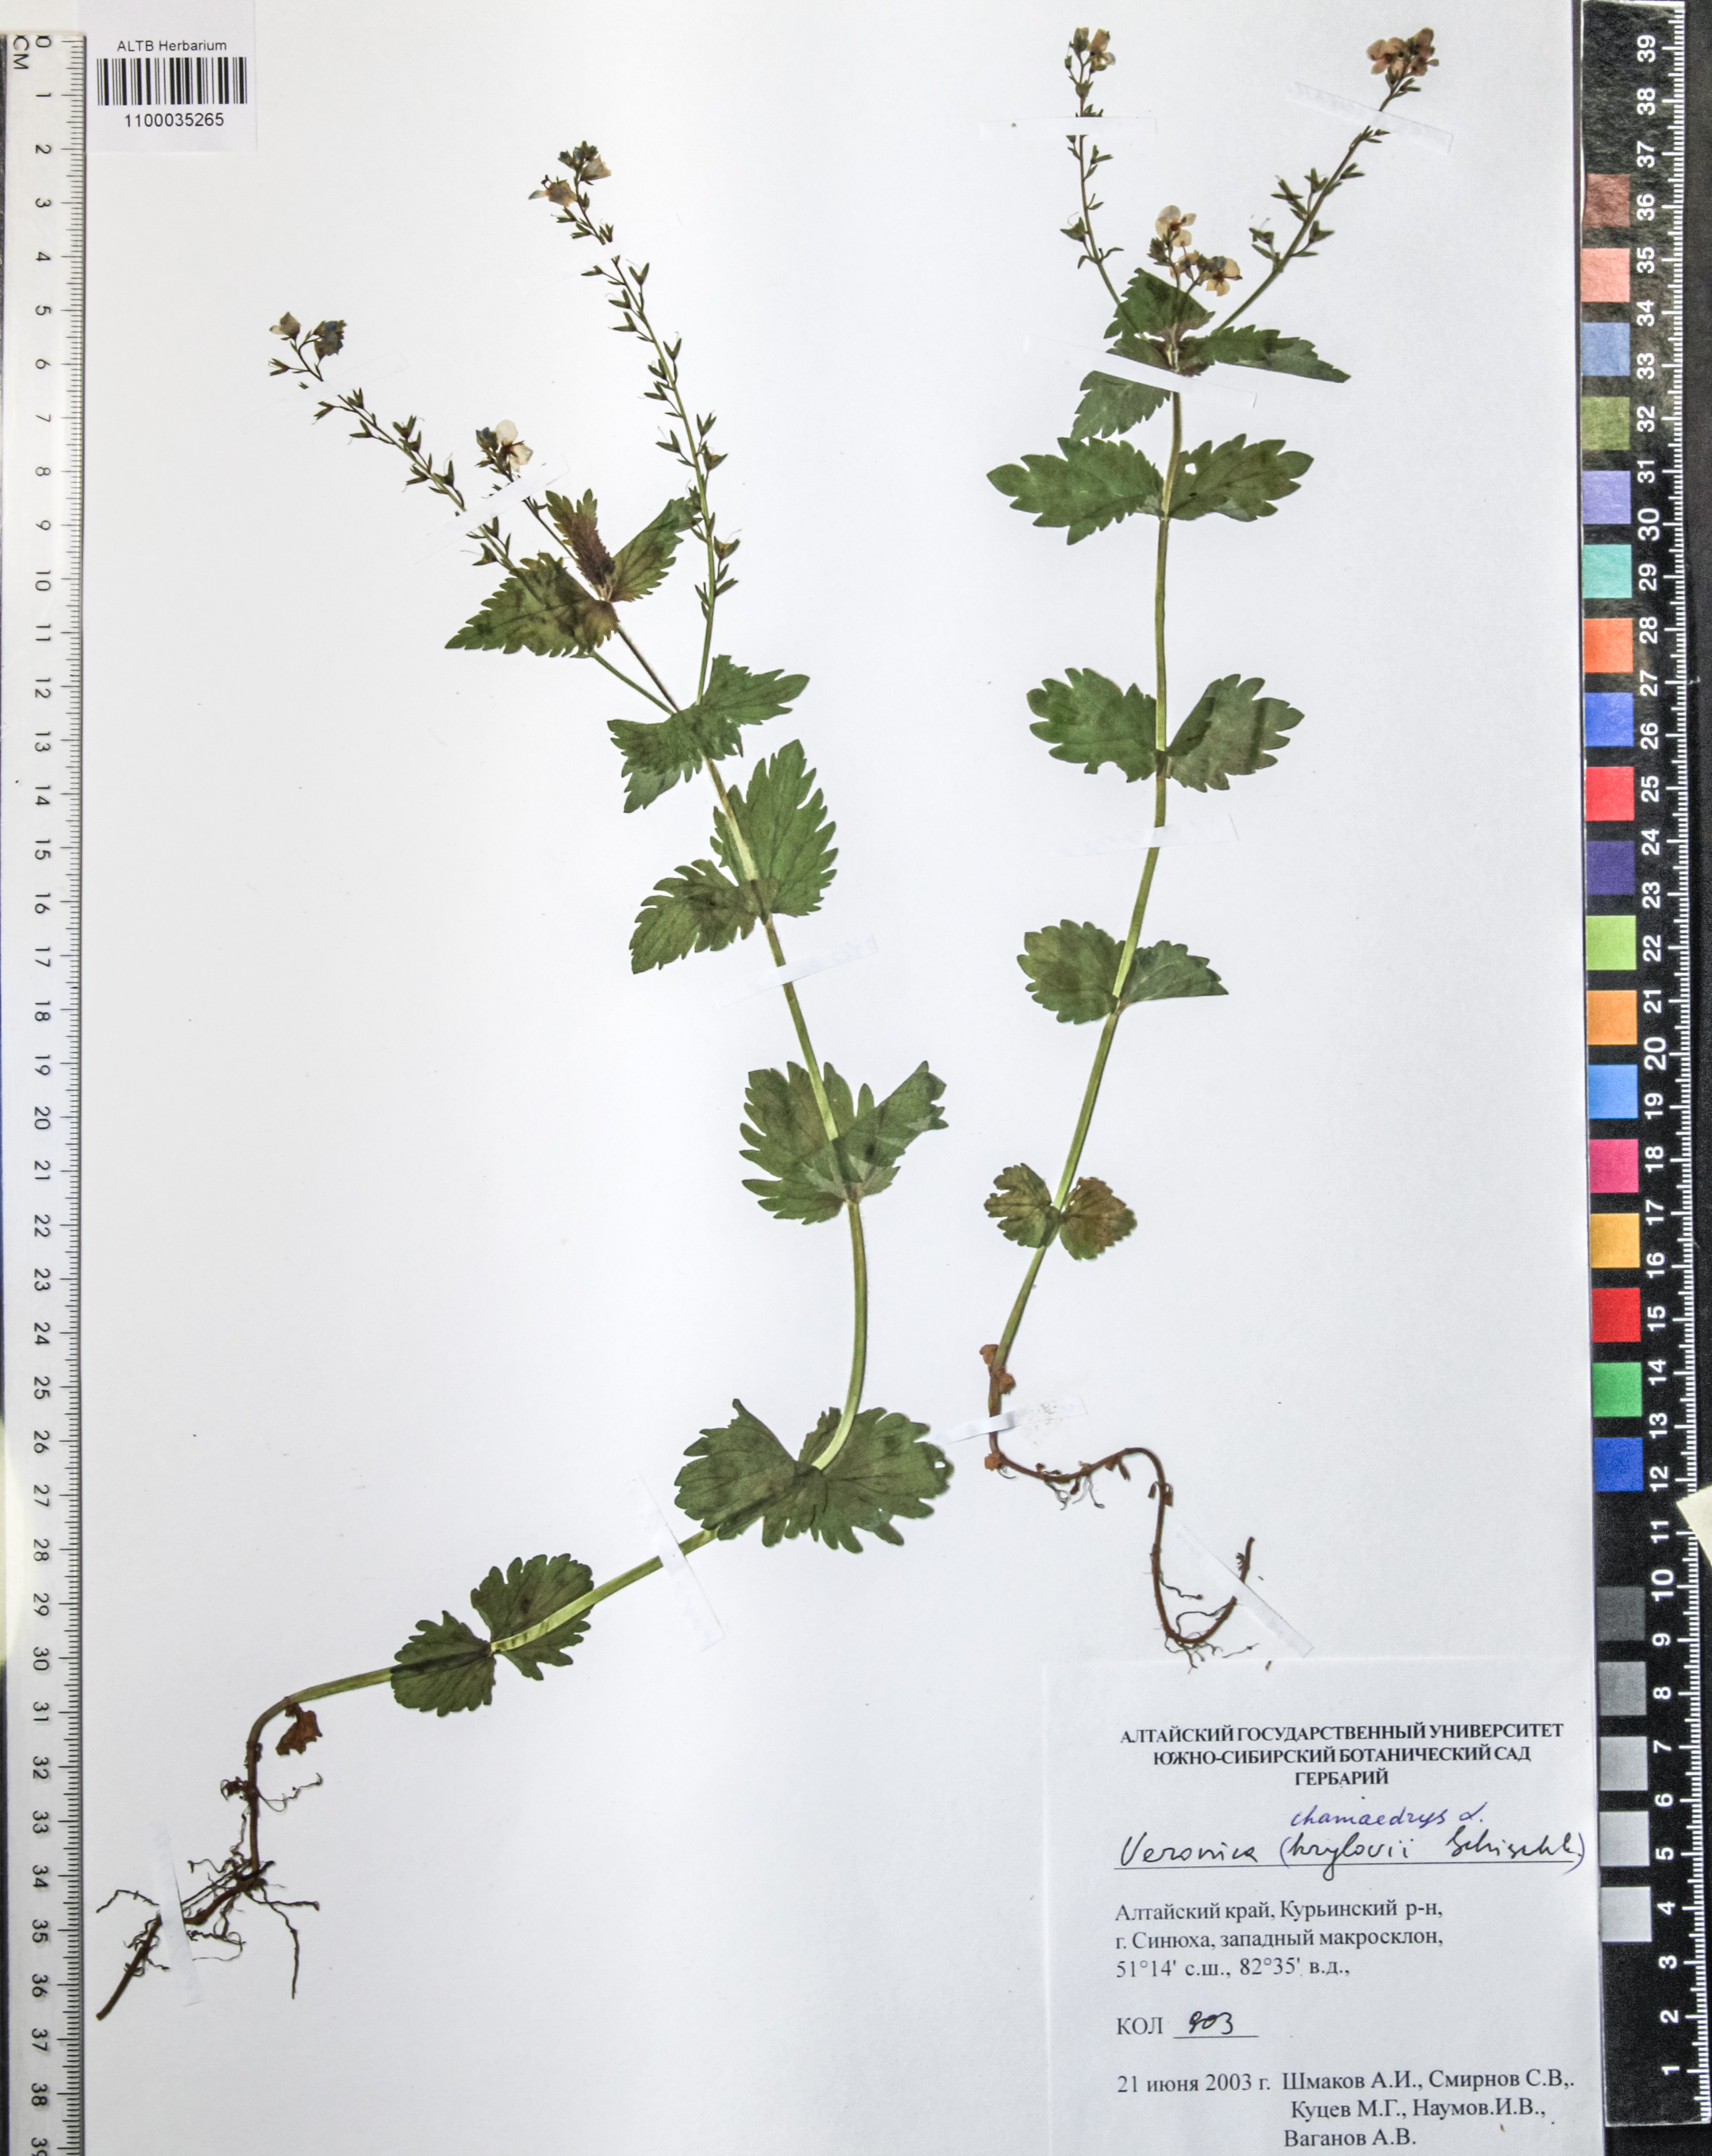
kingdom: Plantae
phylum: Tracheophyta
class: Magnoliopsida
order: Lamiales
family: Plantaginaceae
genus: Veronica
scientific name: Veronica chamaedrys
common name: Germander speedwell
